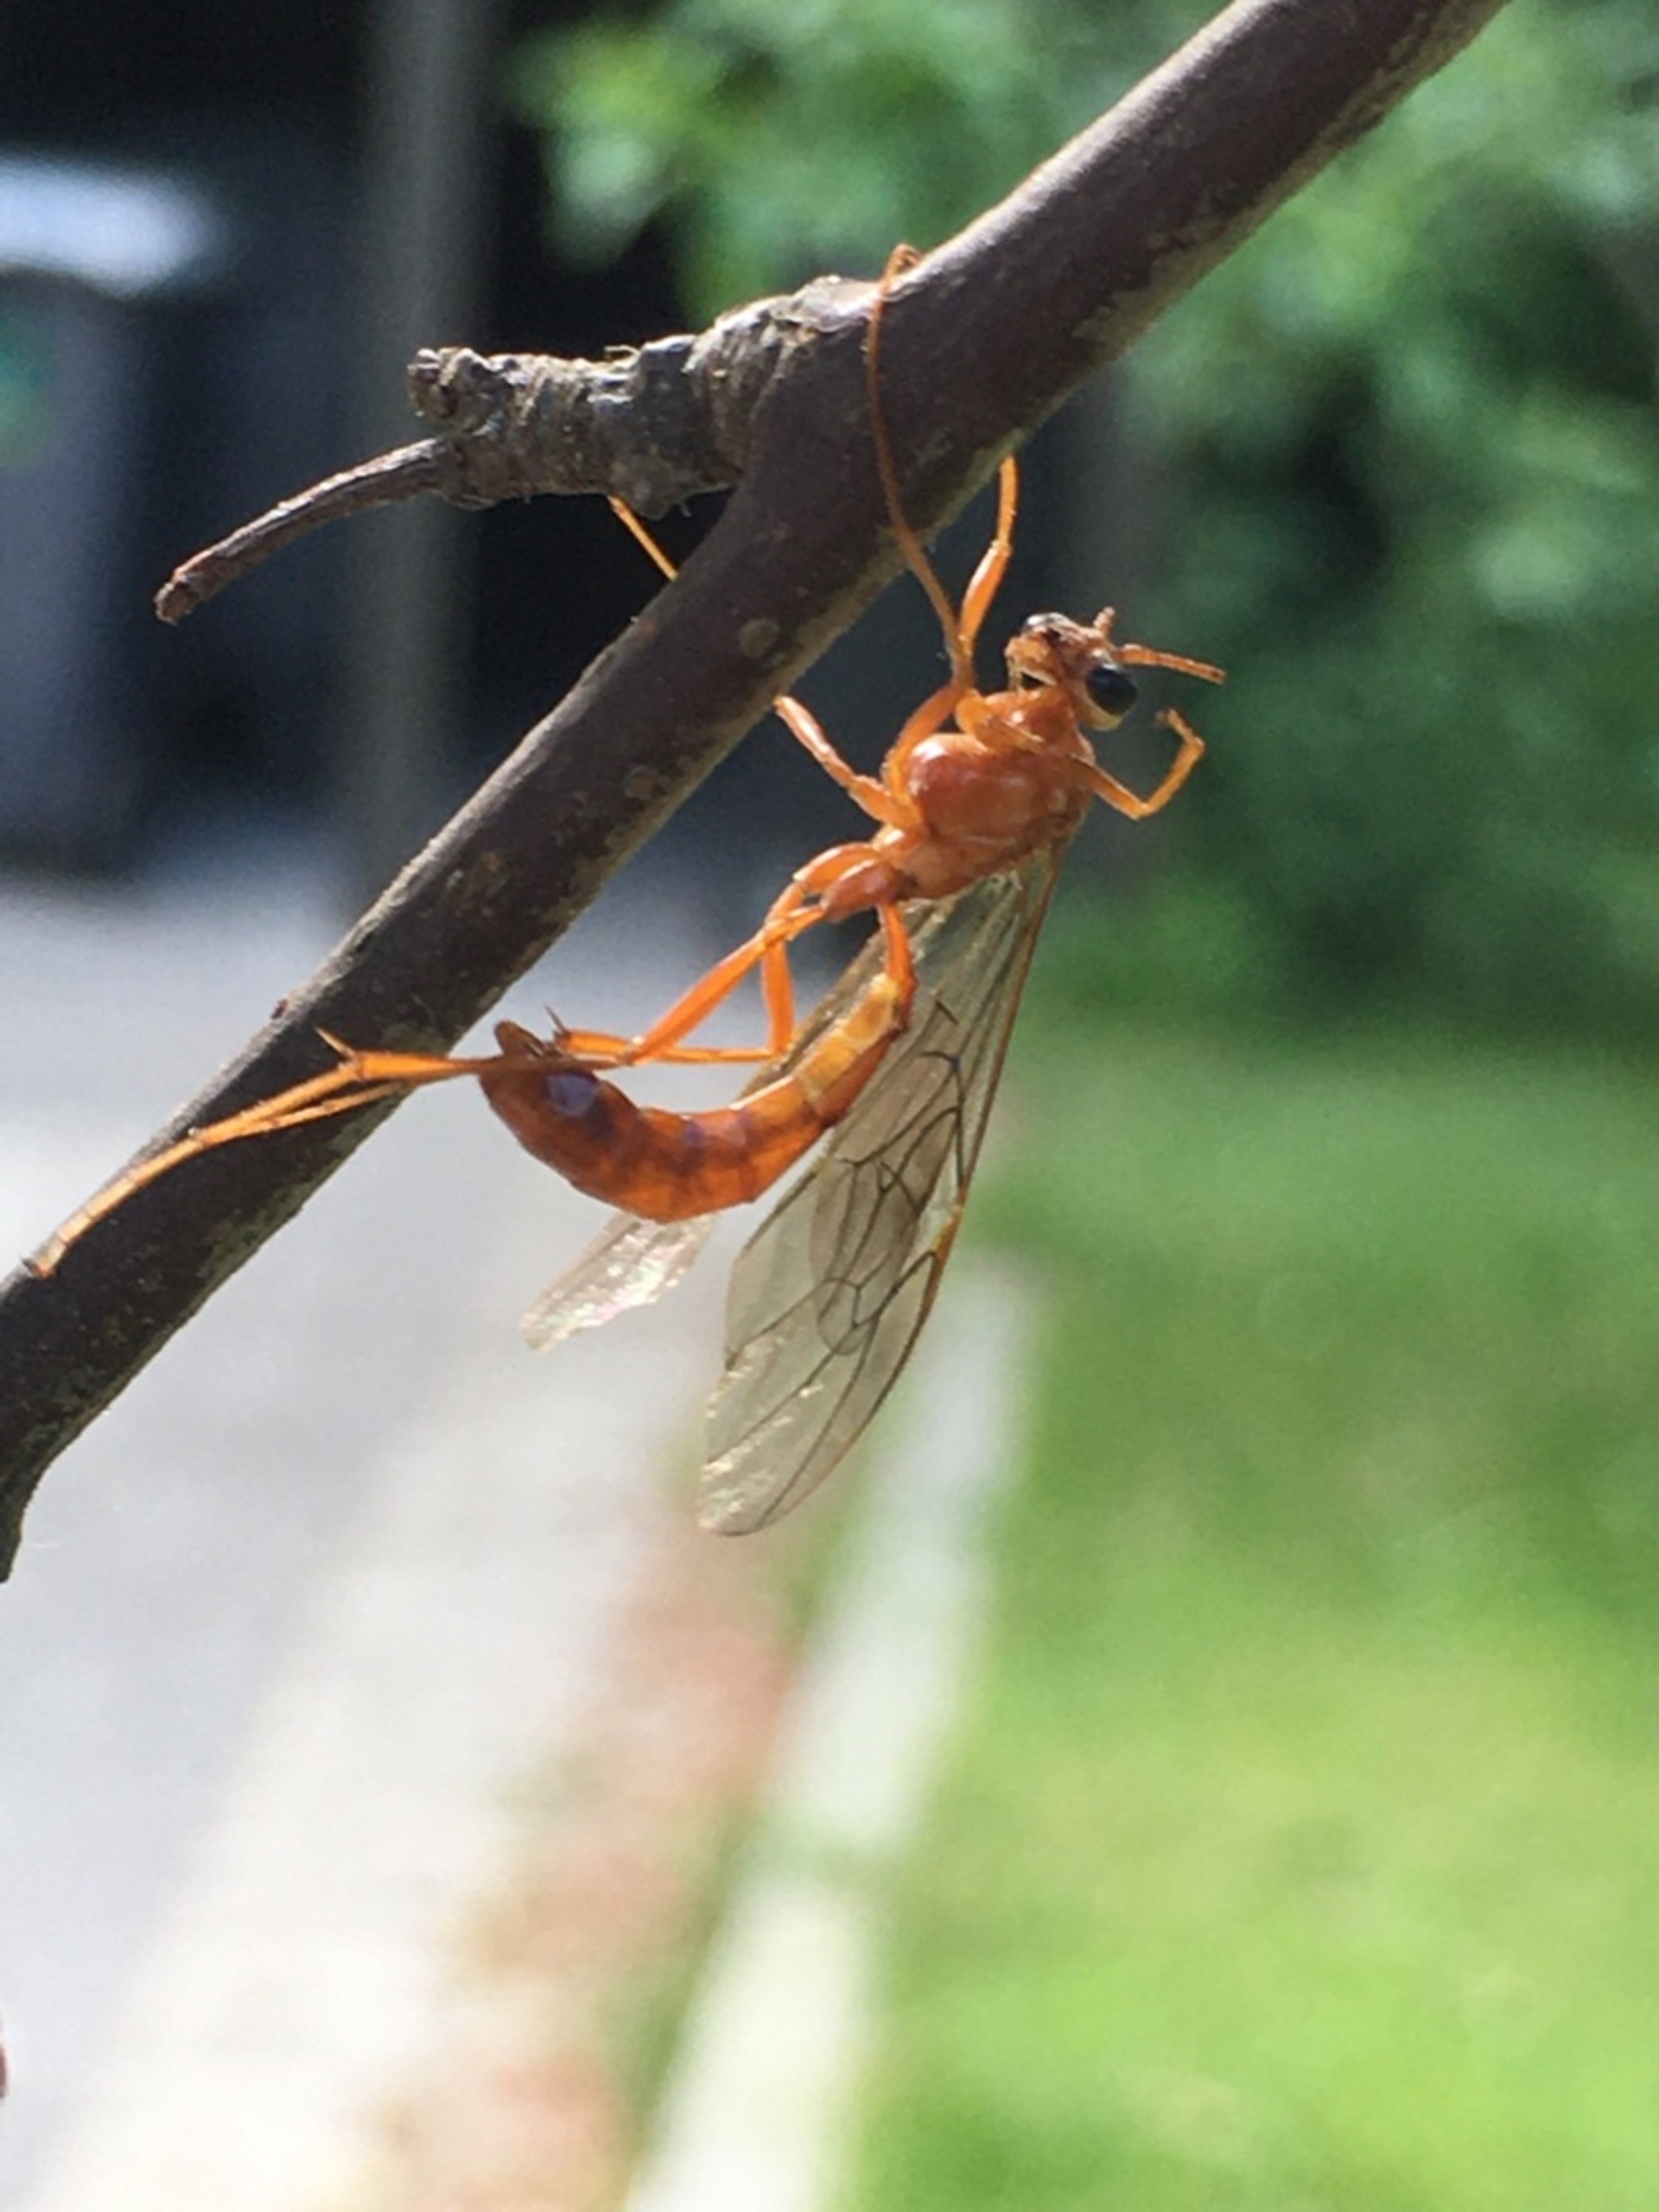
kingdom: Animalia
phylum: Arthropoda
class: Insecta
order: Hymenoptera
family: Ichneumonidae
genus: Ophion
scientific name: Ophion
